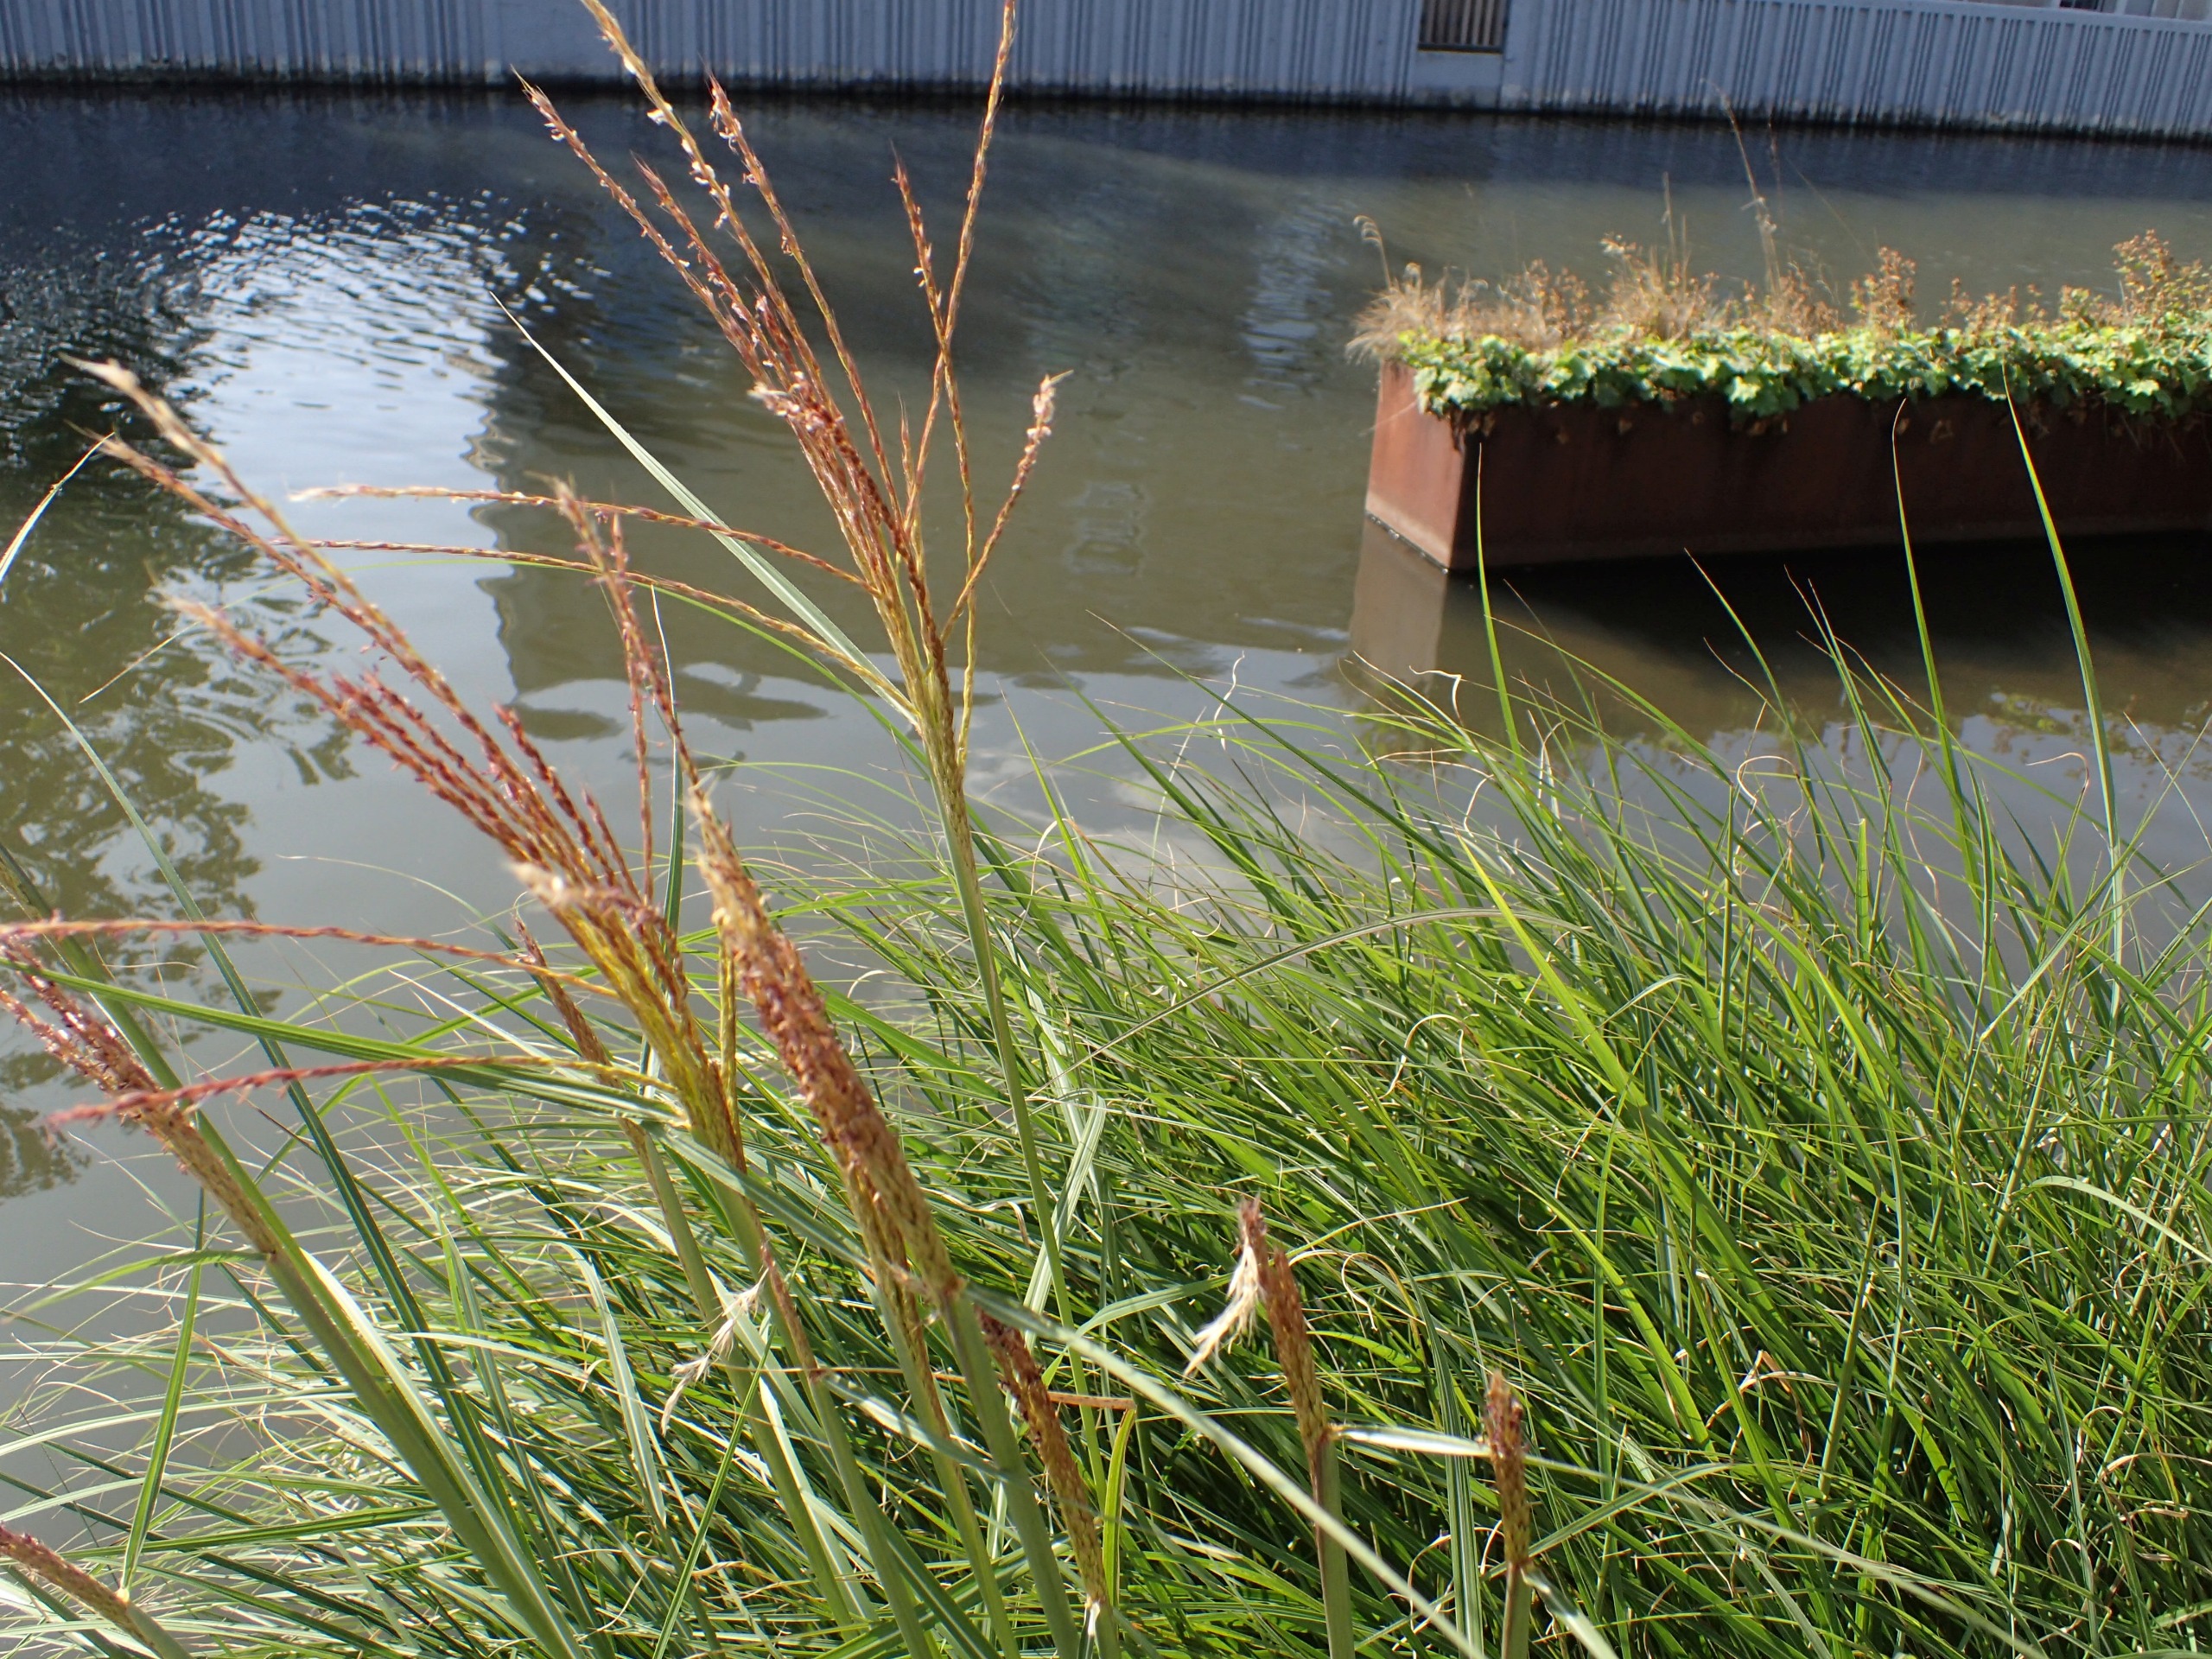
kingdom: Plantae
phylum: Tracheophyta
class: Liliopsida
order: Poales
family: Poaceae
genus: Miscanthus
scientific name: Miscanthus sinensis
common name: Elefantgræs
